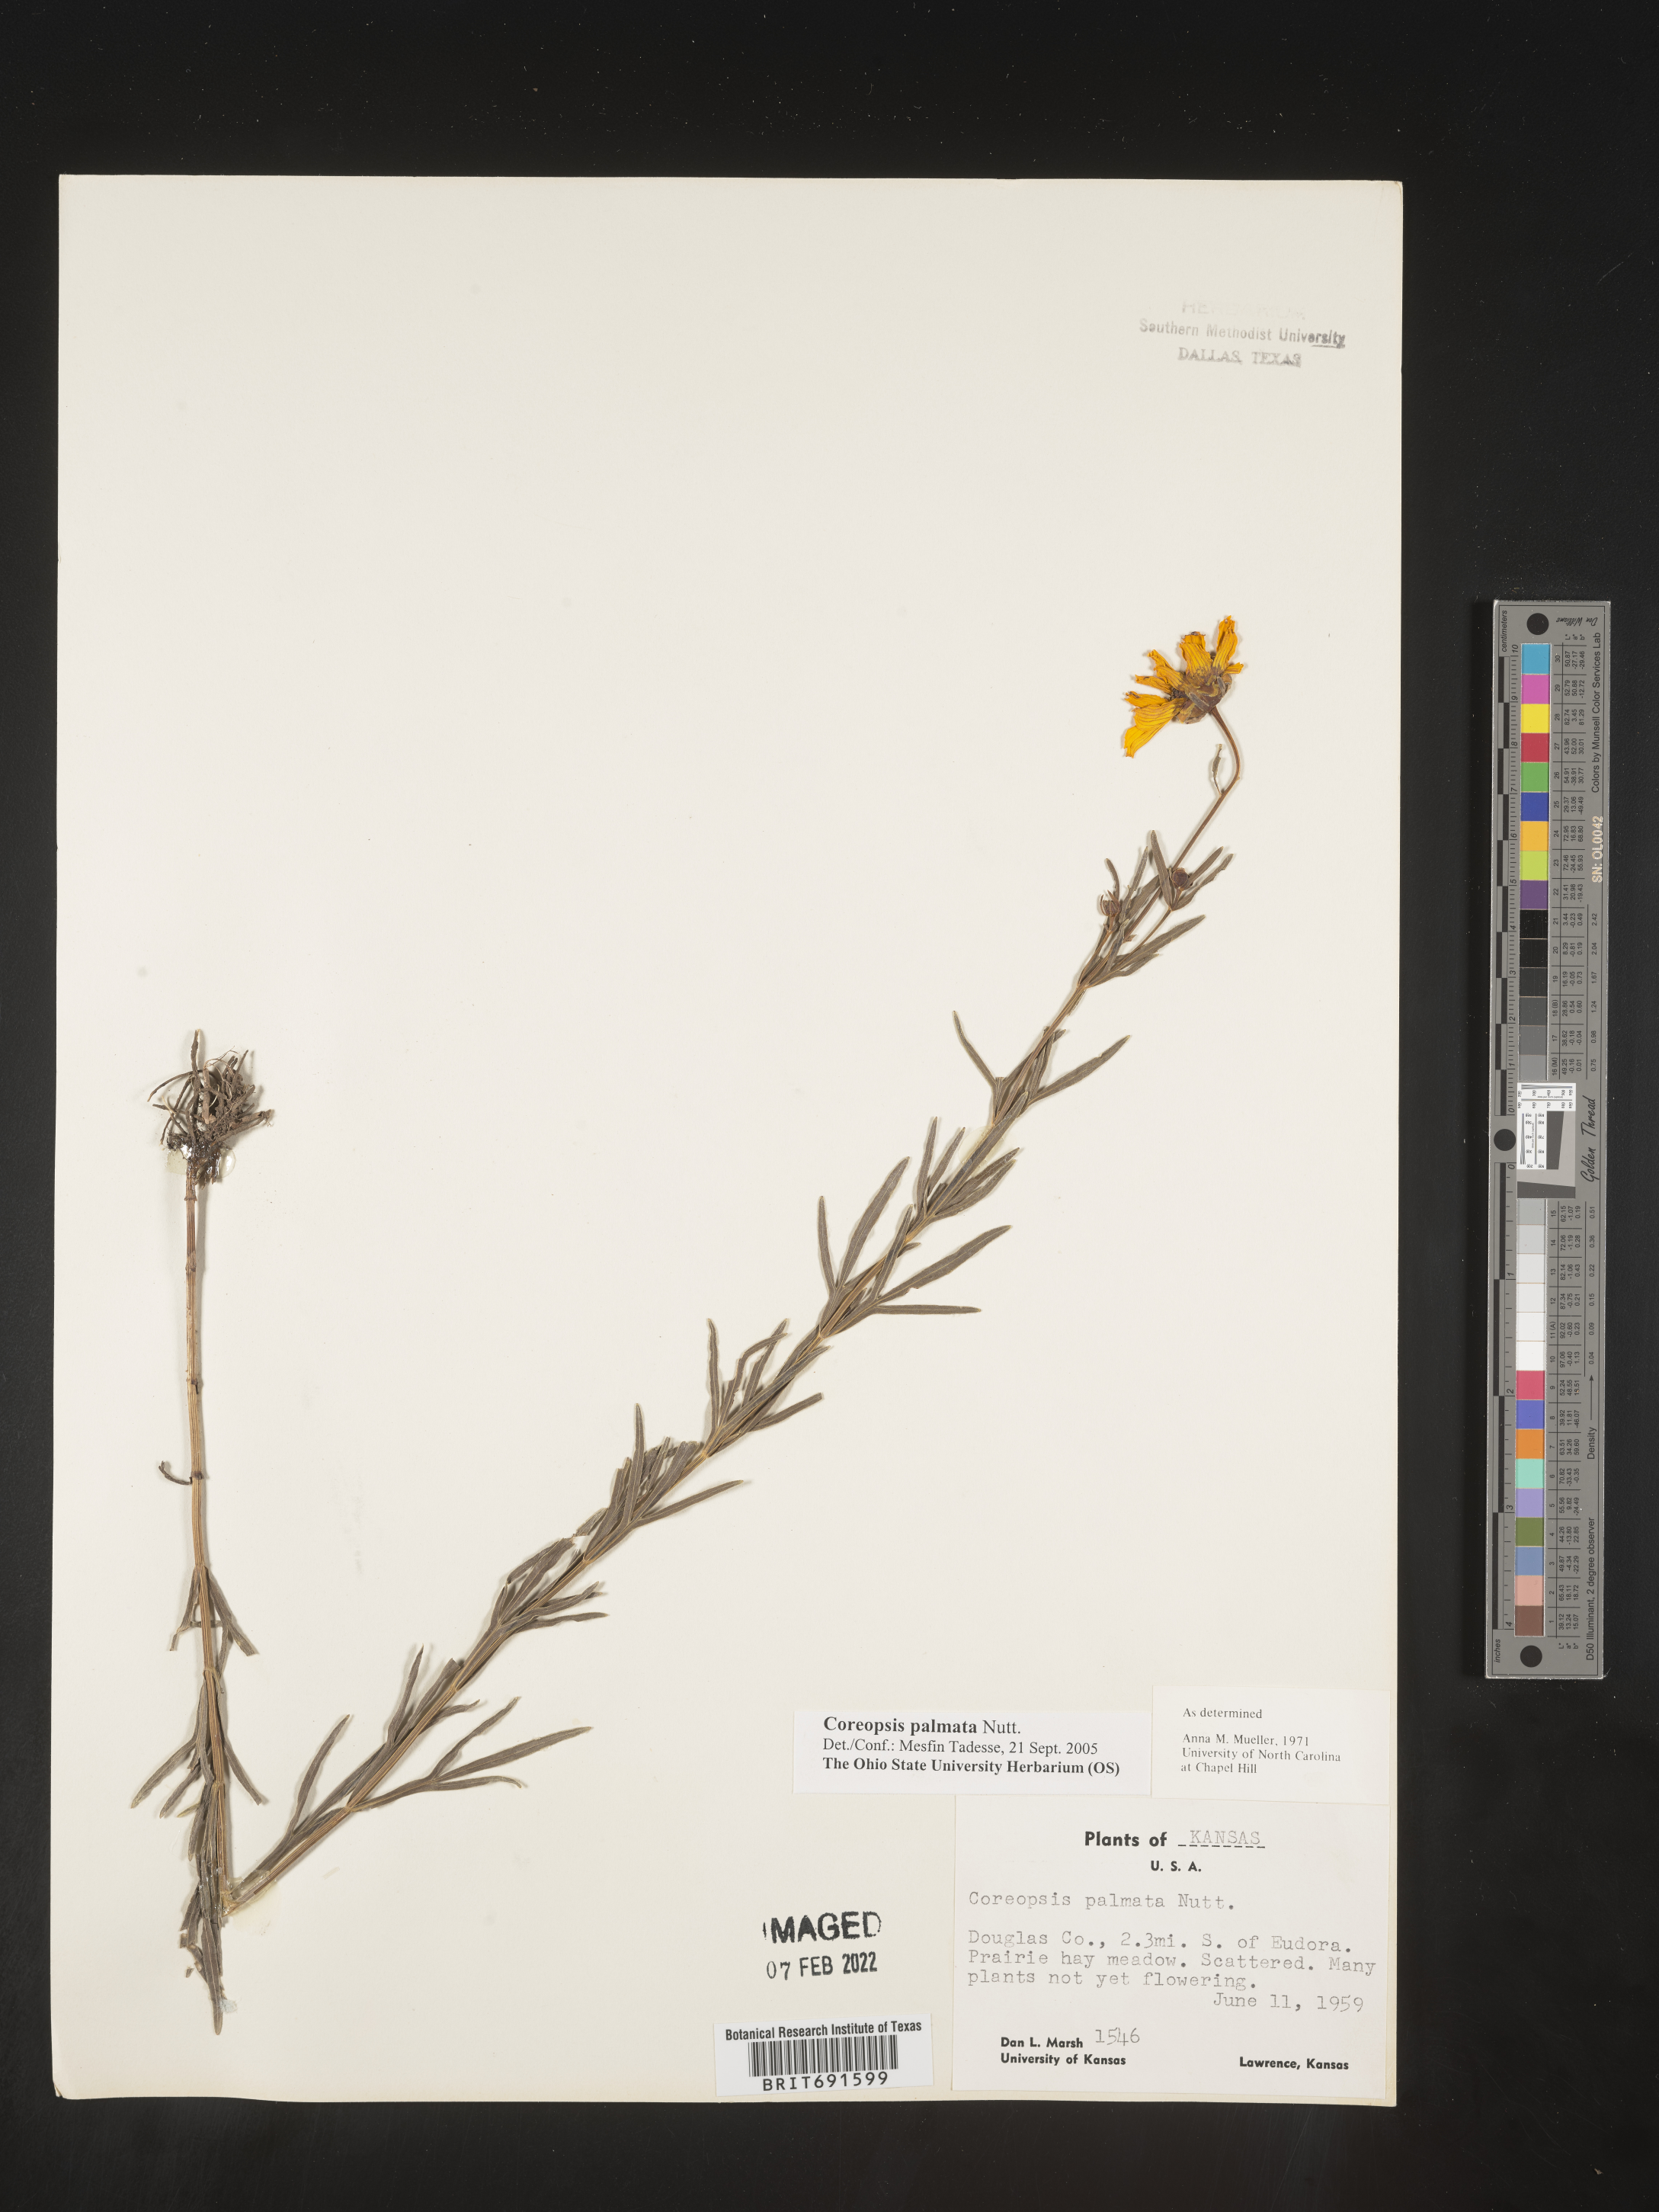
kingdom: Plantae
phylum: Tracheophyta
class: Magnoliopsida
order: Asterales
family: Asteraceae
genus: Coreopsis
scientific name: Coreopsis palmata
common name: Prairie coreopsis
